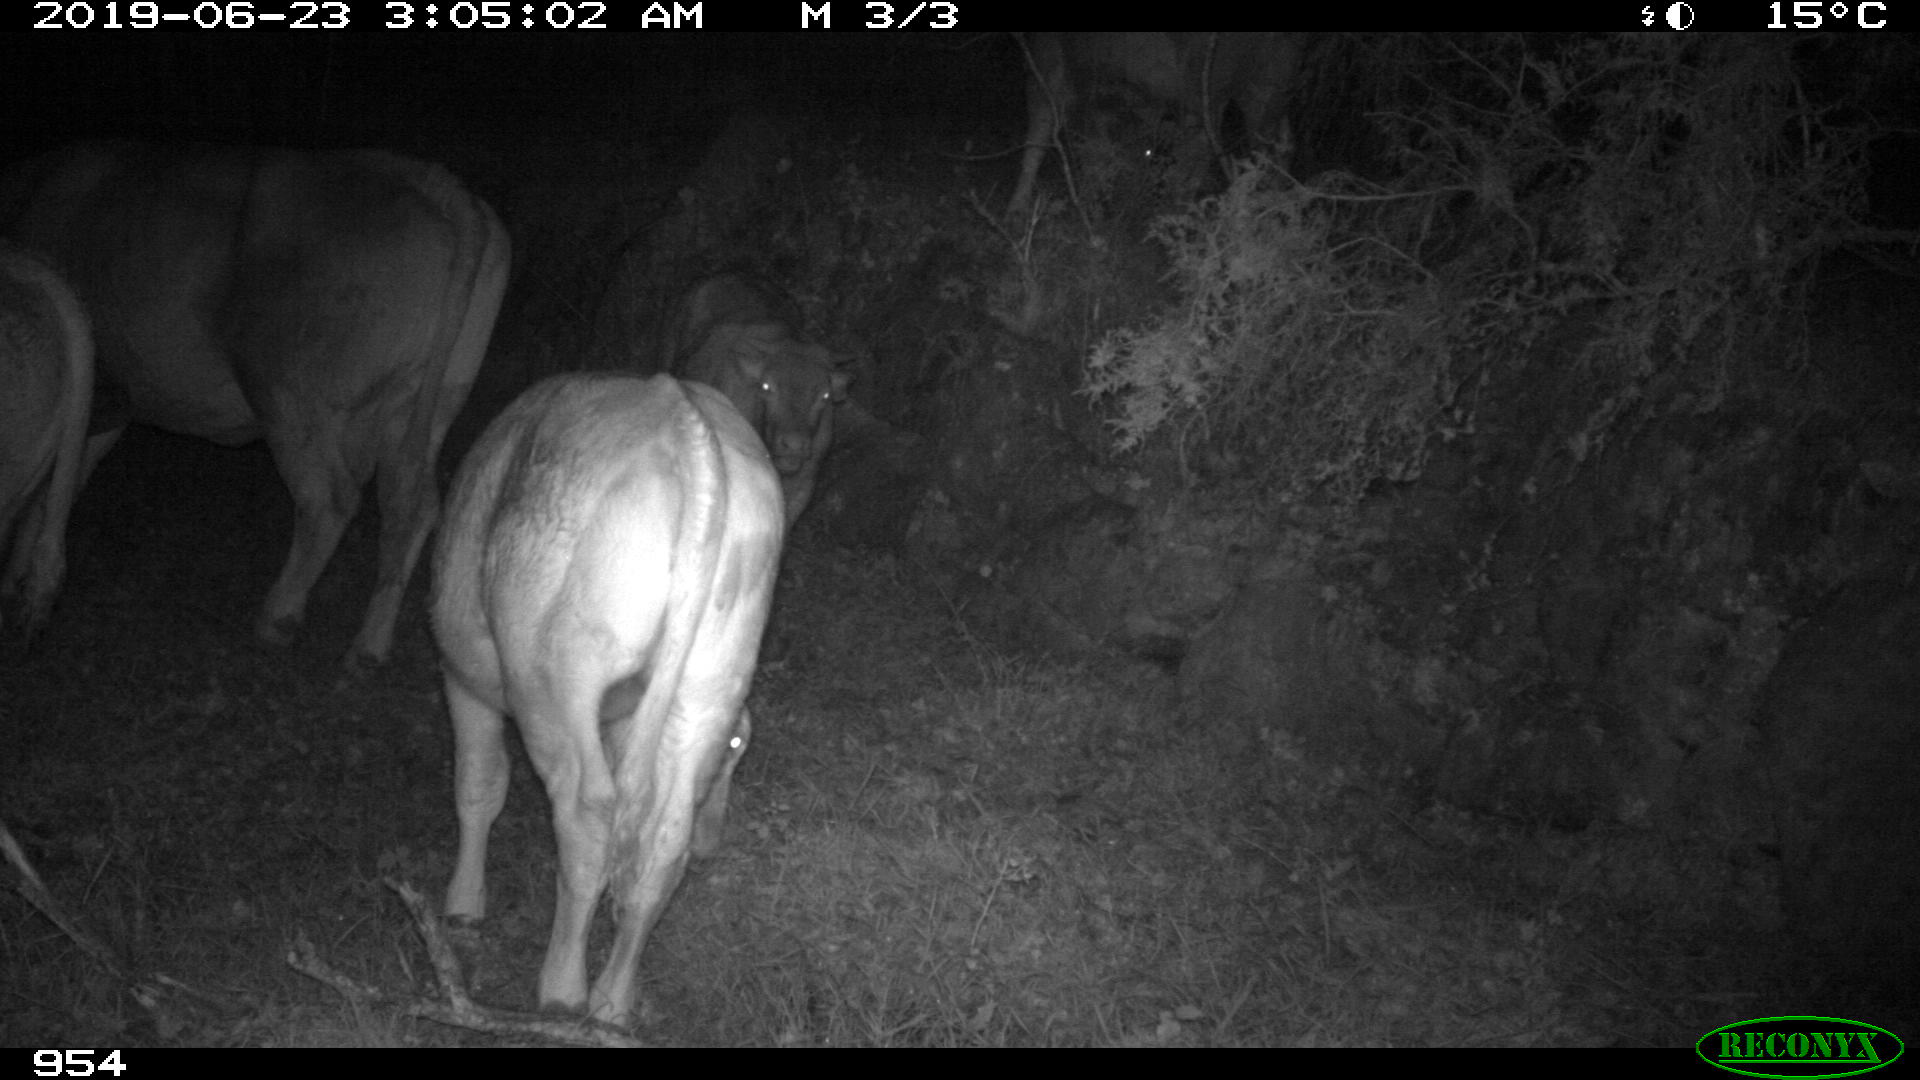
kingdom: Animalia
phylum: Chordata
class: Mammalia
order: Artiodactyla
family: Bovidae
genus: Bos
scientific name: Bos taurus
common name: Domesticated cattle
